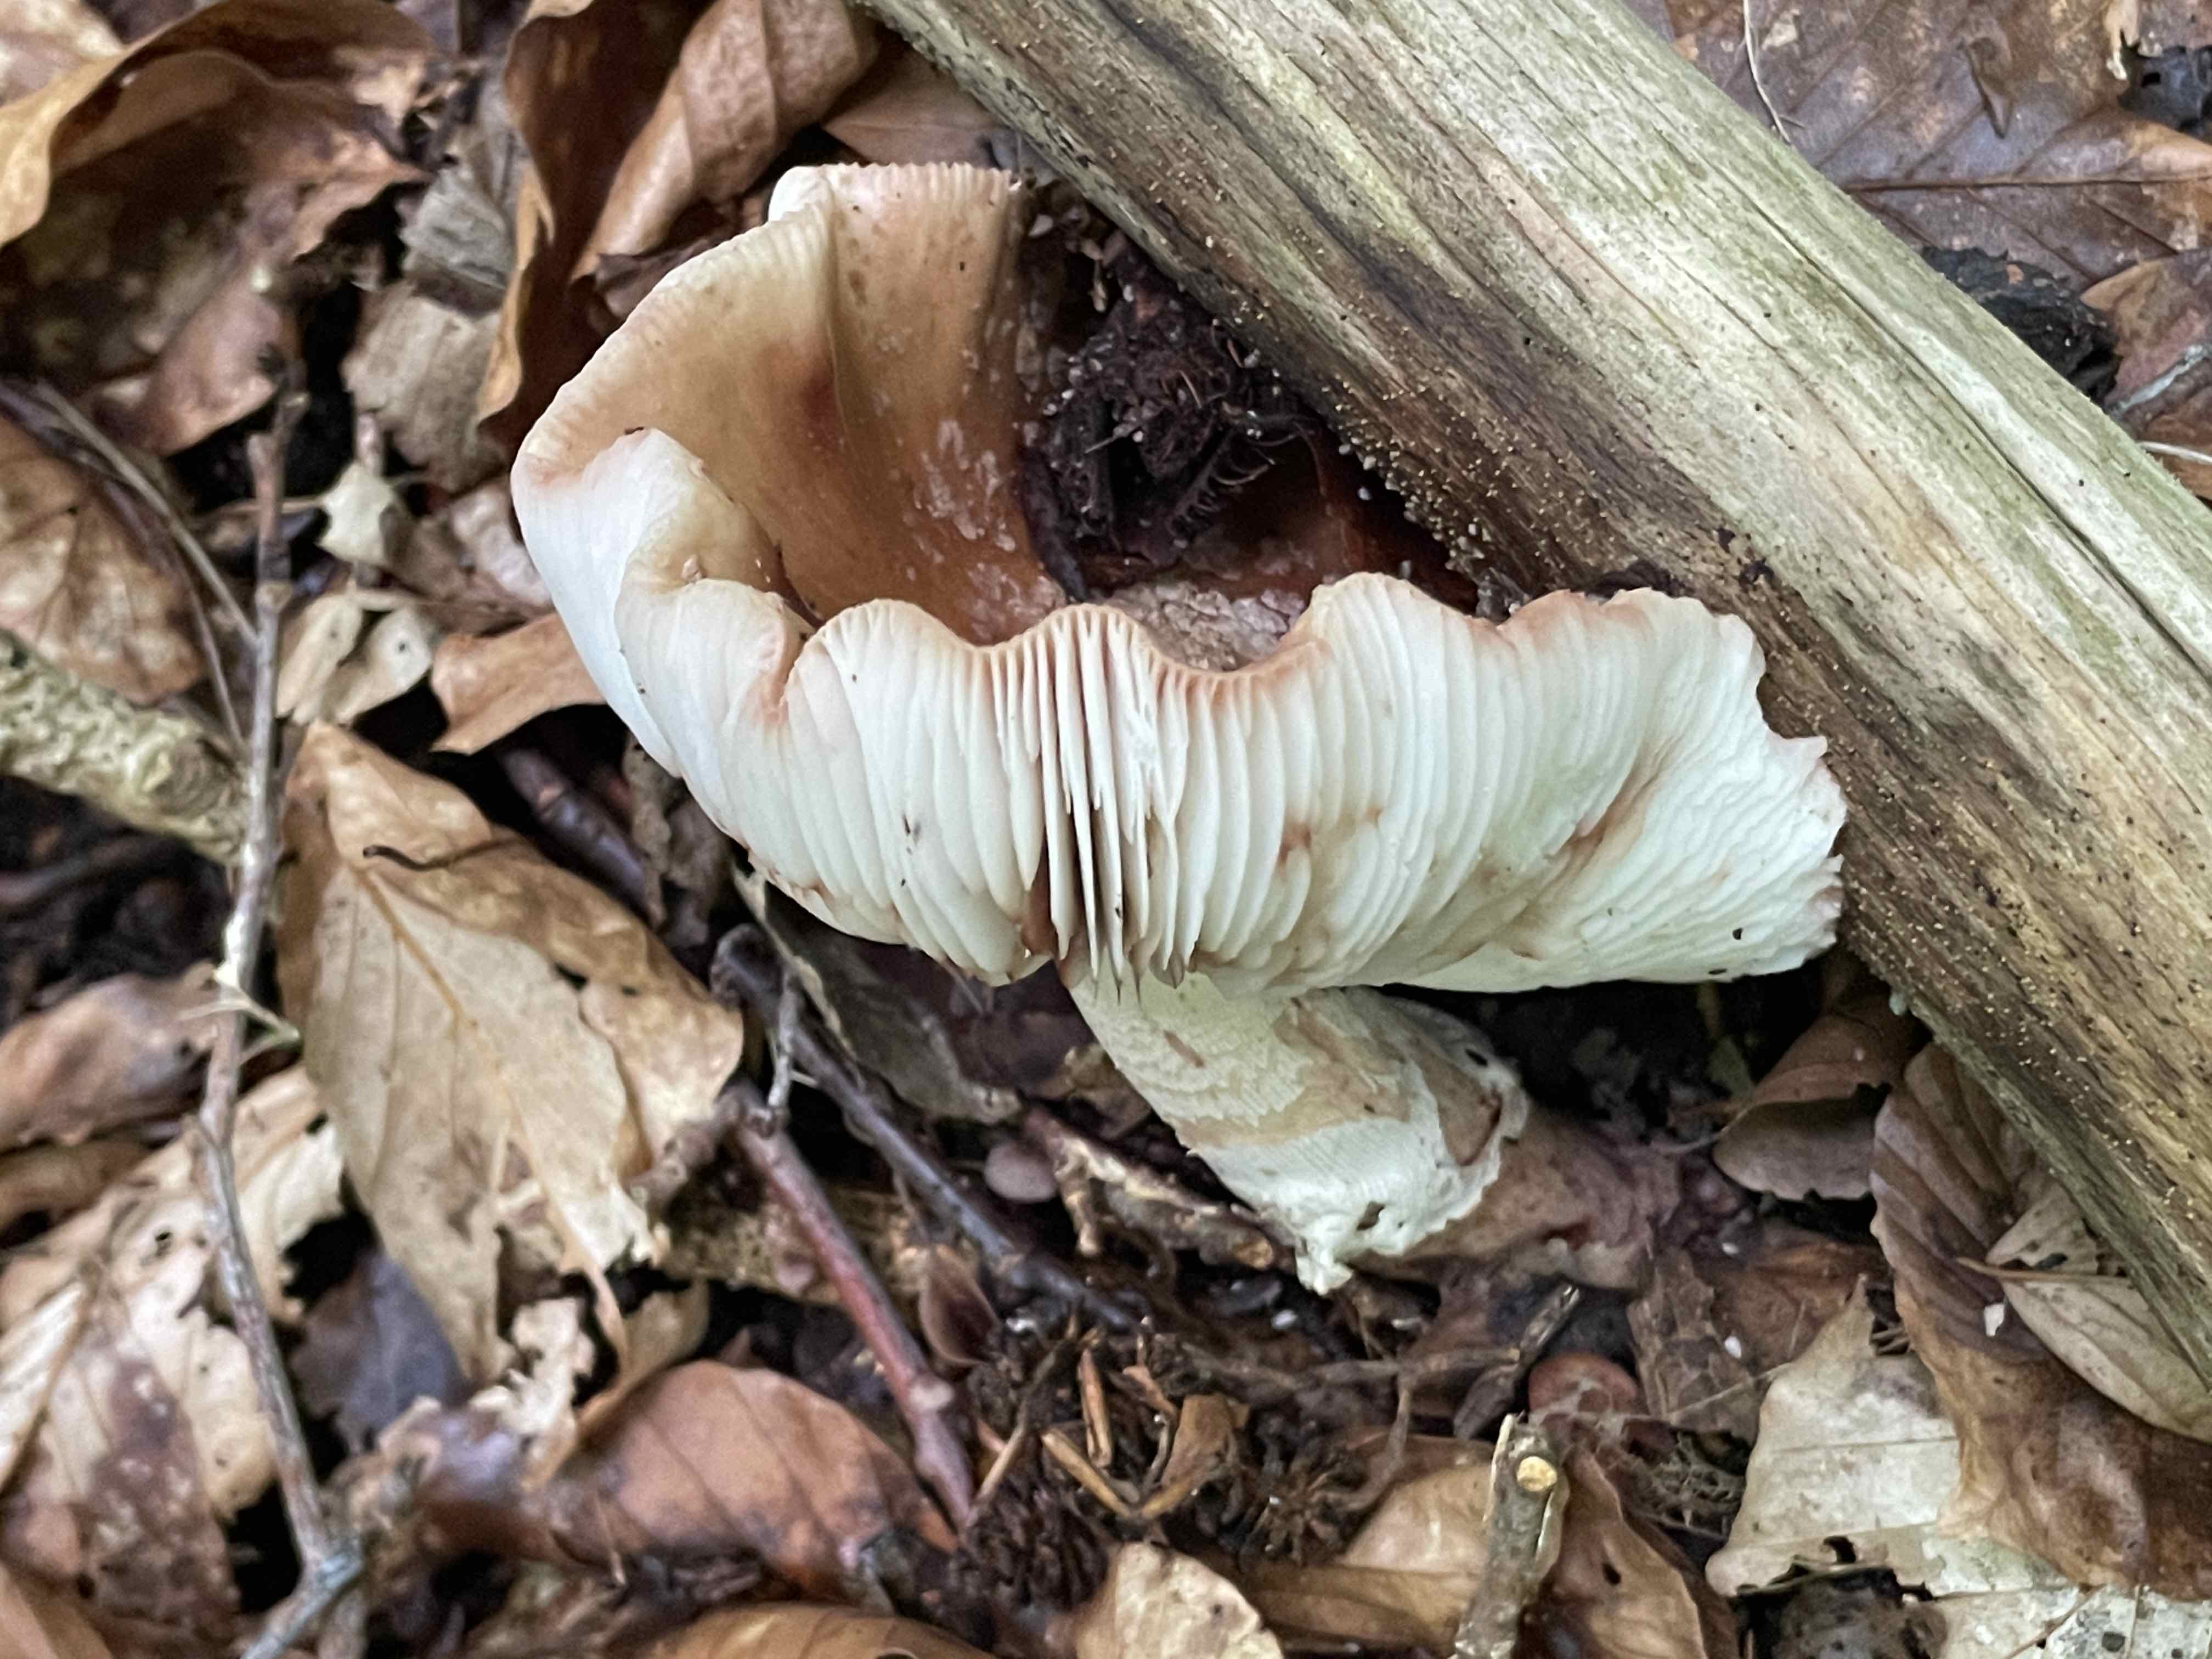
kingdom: Fungi
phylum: Basidiomycota
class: Agaricomycetes
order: Agaricales
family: Amanitaceae
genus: Amanita
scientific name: Amanita rubescens
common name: rødmende fluesvamp
